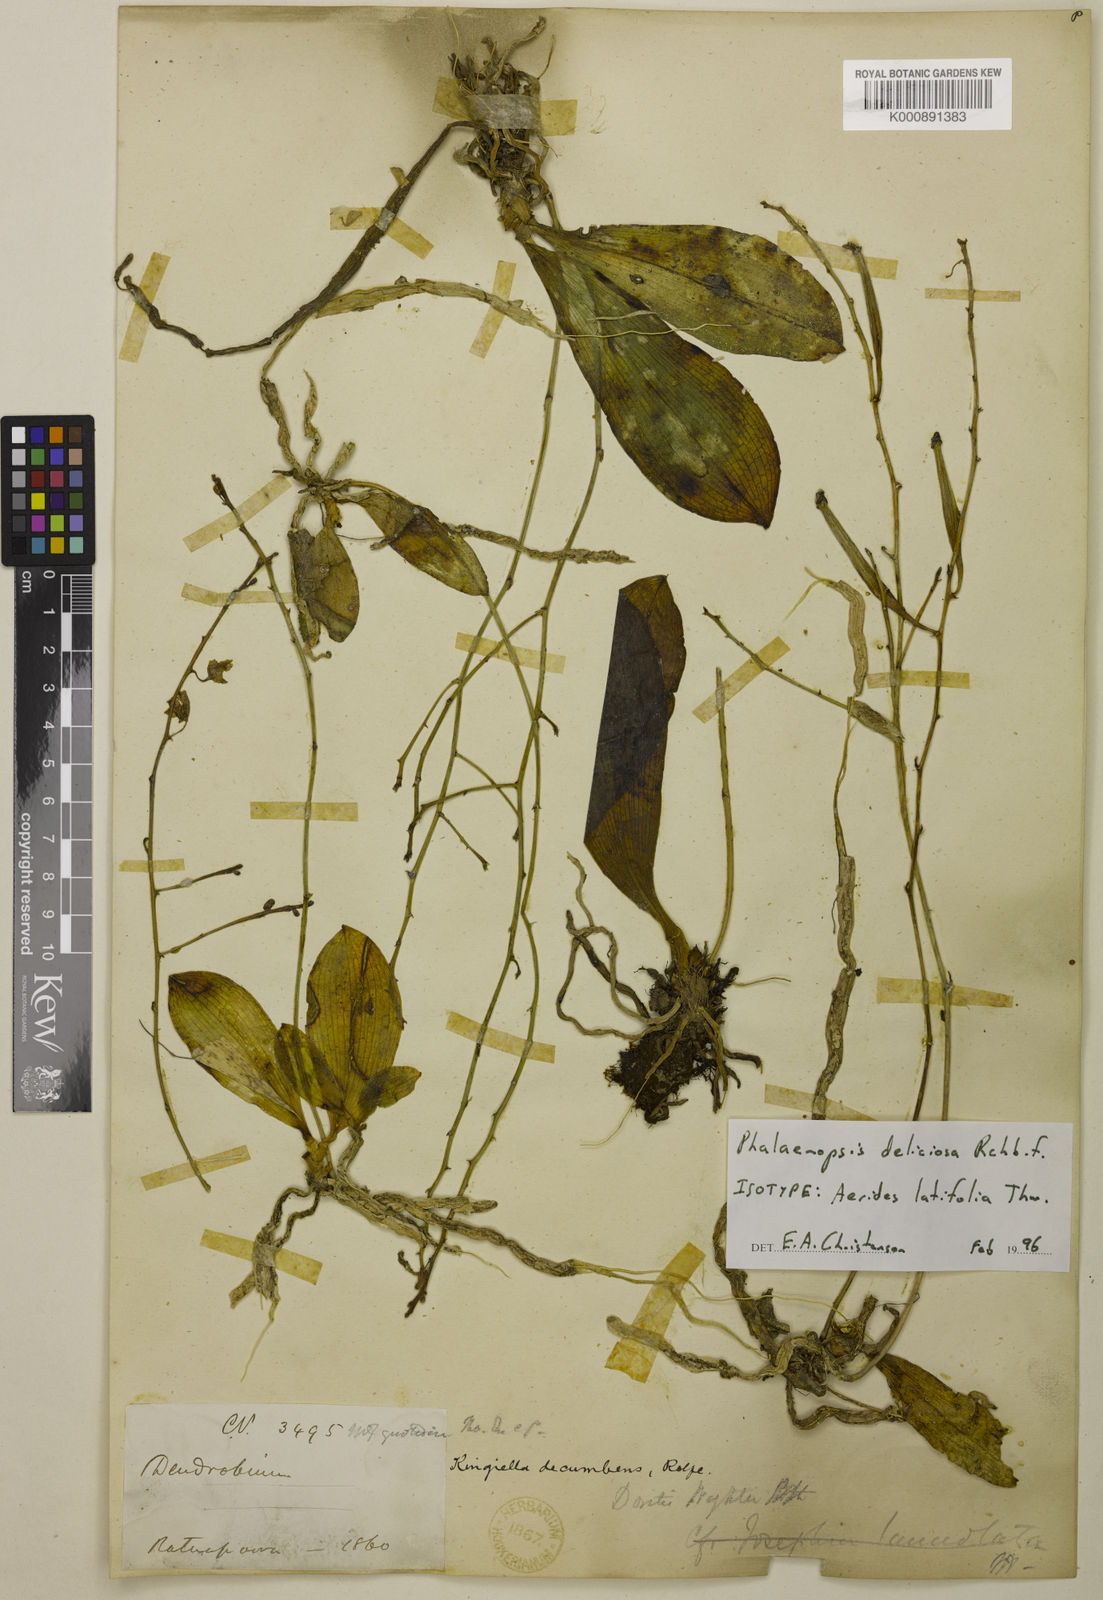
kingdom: Plantae
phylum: Tracheophyta
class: Liliopsida
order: Asparagales
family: Orchidaceae
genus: Phalaenopsis
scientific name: Phalaenopsis parishii
